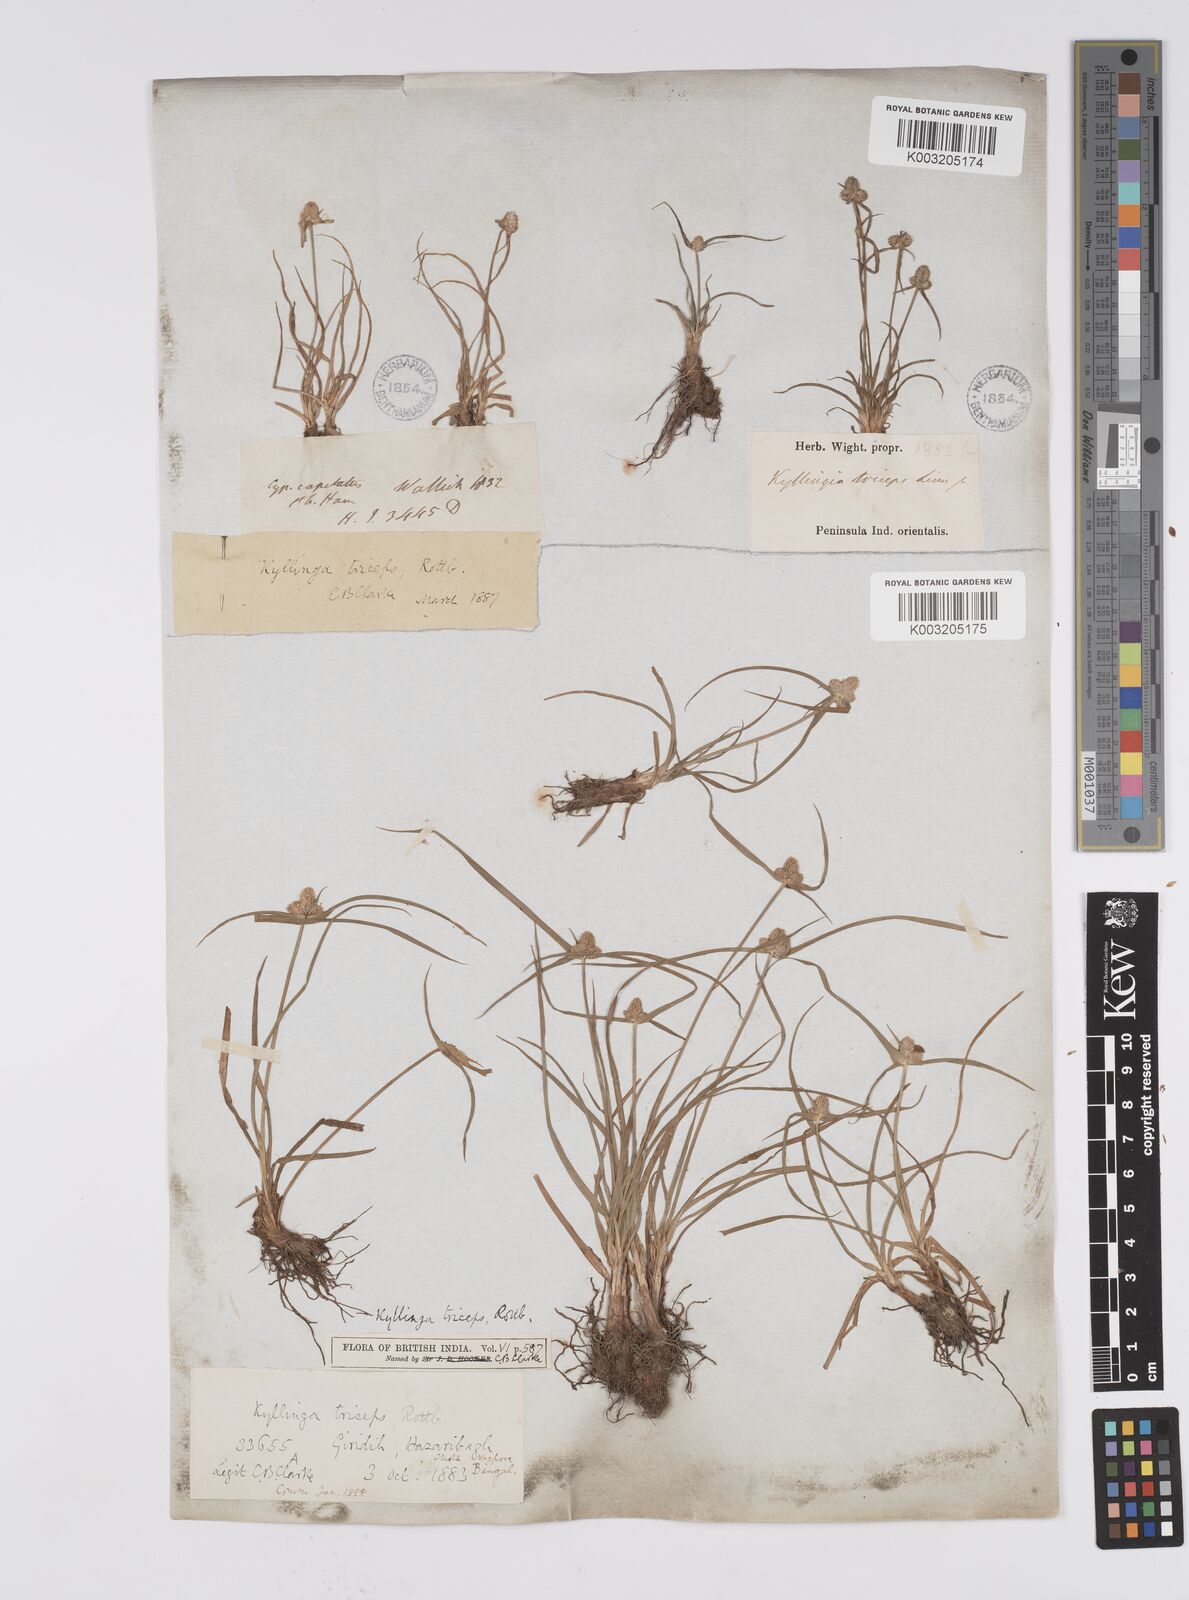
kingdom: Plantae
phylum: Tracheophyta
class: Liliopsida
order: Poales
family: Cyperaceae
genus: Cyperus
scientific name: Cyperus
